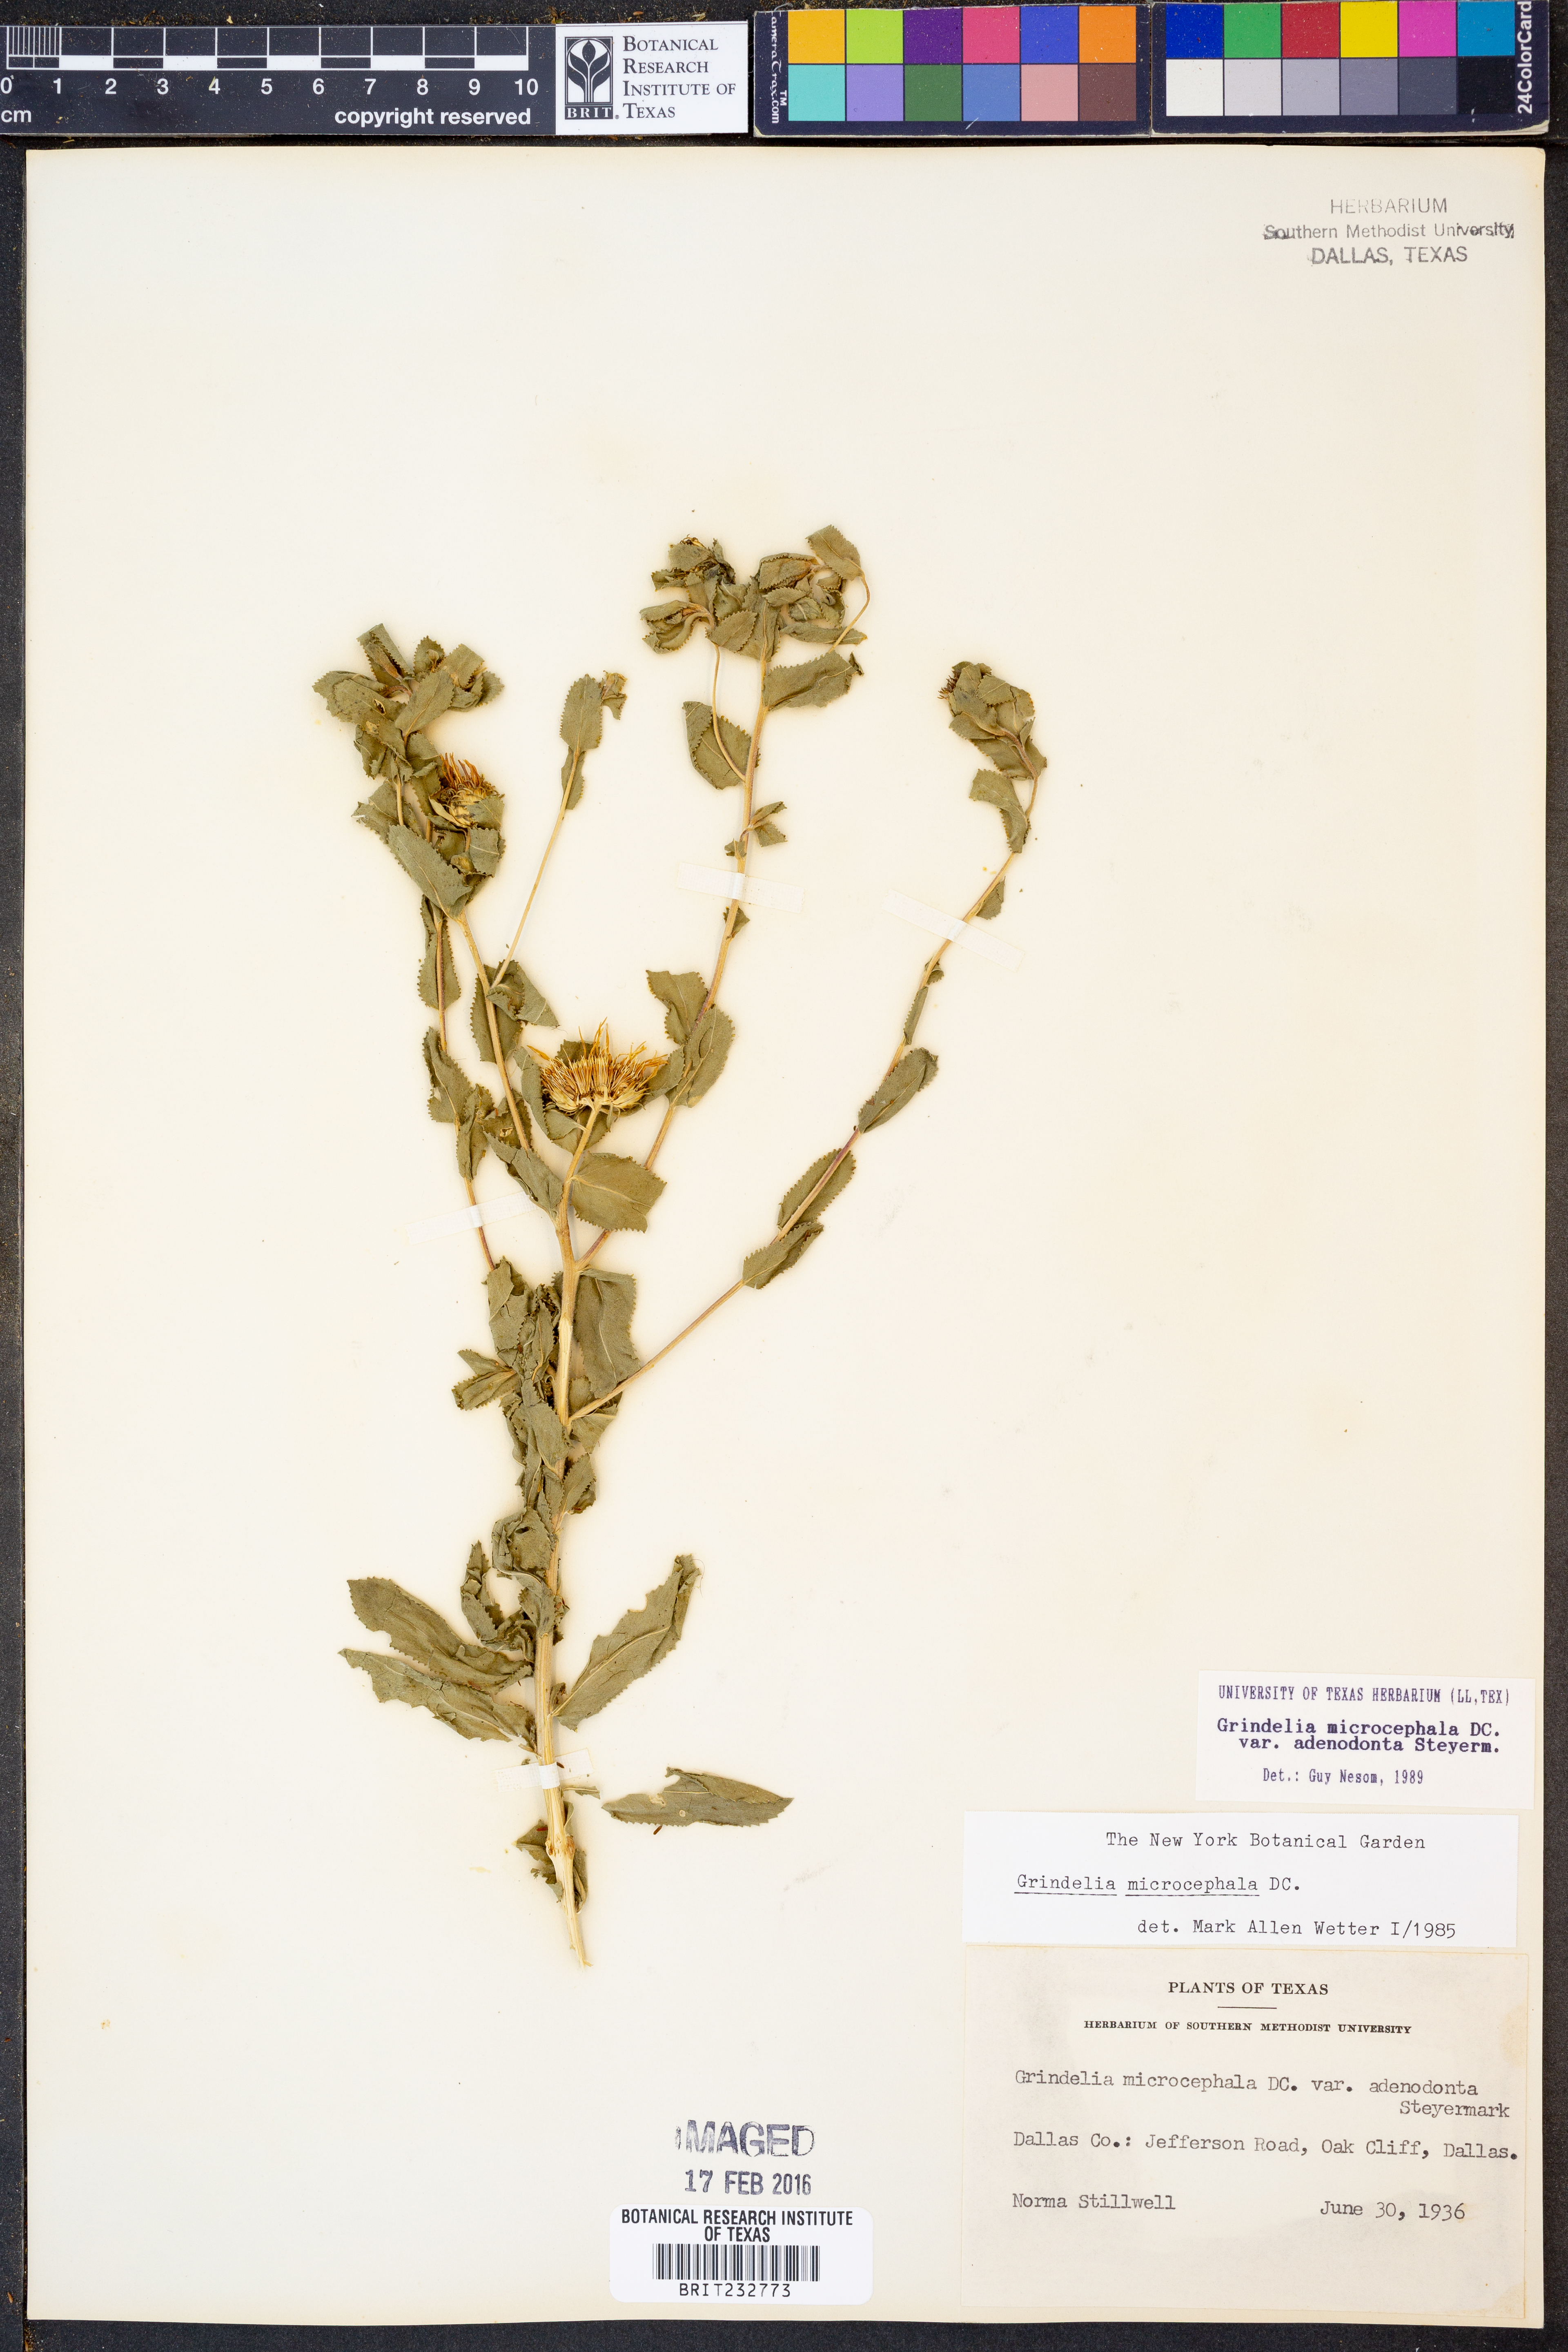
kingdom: Plantae
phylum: Tracheophyta
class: Magnoliopsida
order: Asterales
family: Asteraceae
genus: Grindelia
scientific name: Grindelia adenodonta
